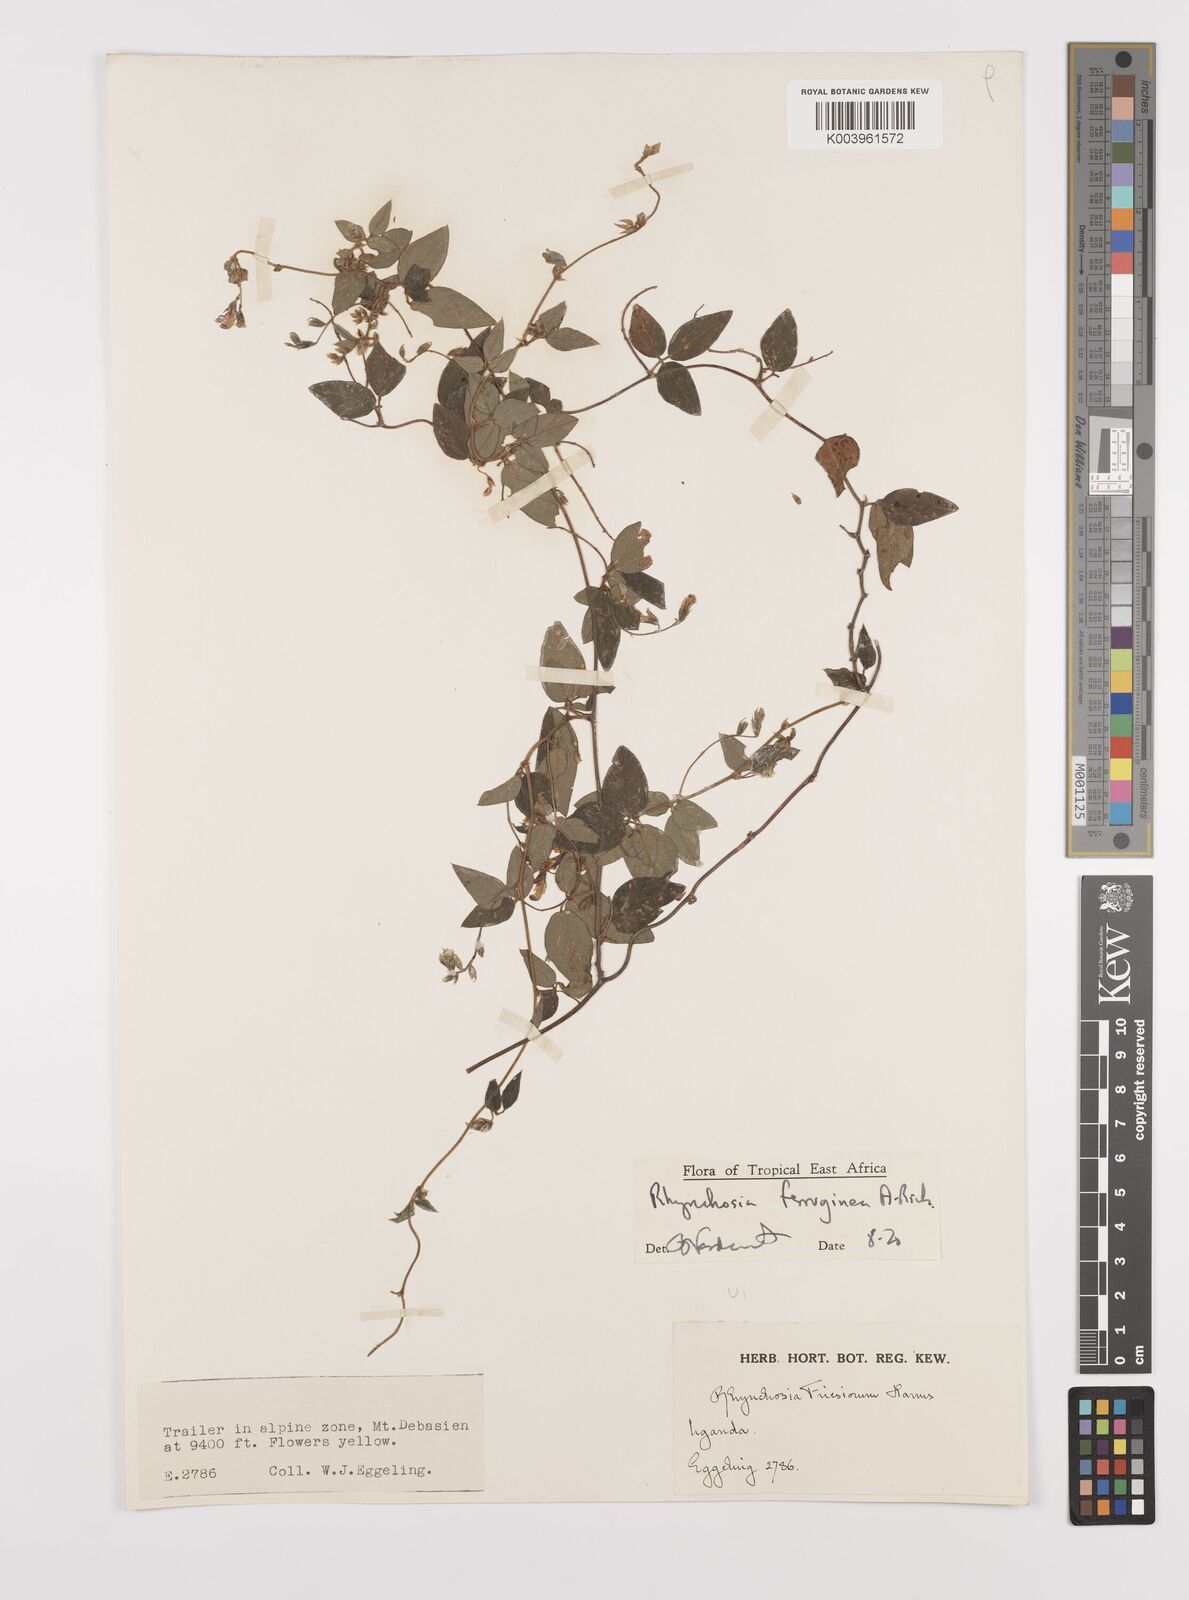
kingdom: Plantae
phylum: Tracheophyta
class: Magnoliopsida
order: Fabales
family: Fabaceae
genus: Rhynchosia
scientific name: Rhynchosia ferruginea
